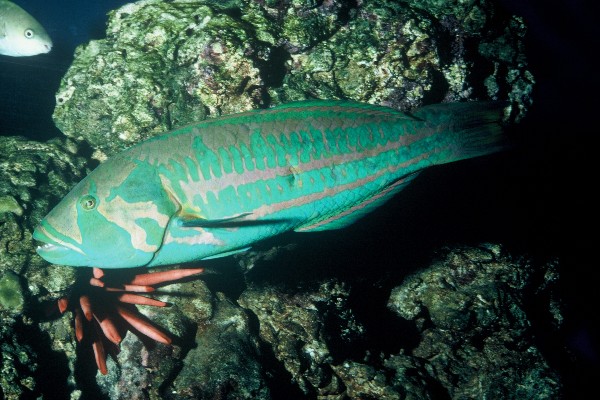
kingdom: Animalia
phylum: Chordata
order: Perciformes
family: Labridae
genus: Thalassoma
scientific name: Thalassoma purpureum
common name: Parrotfish
